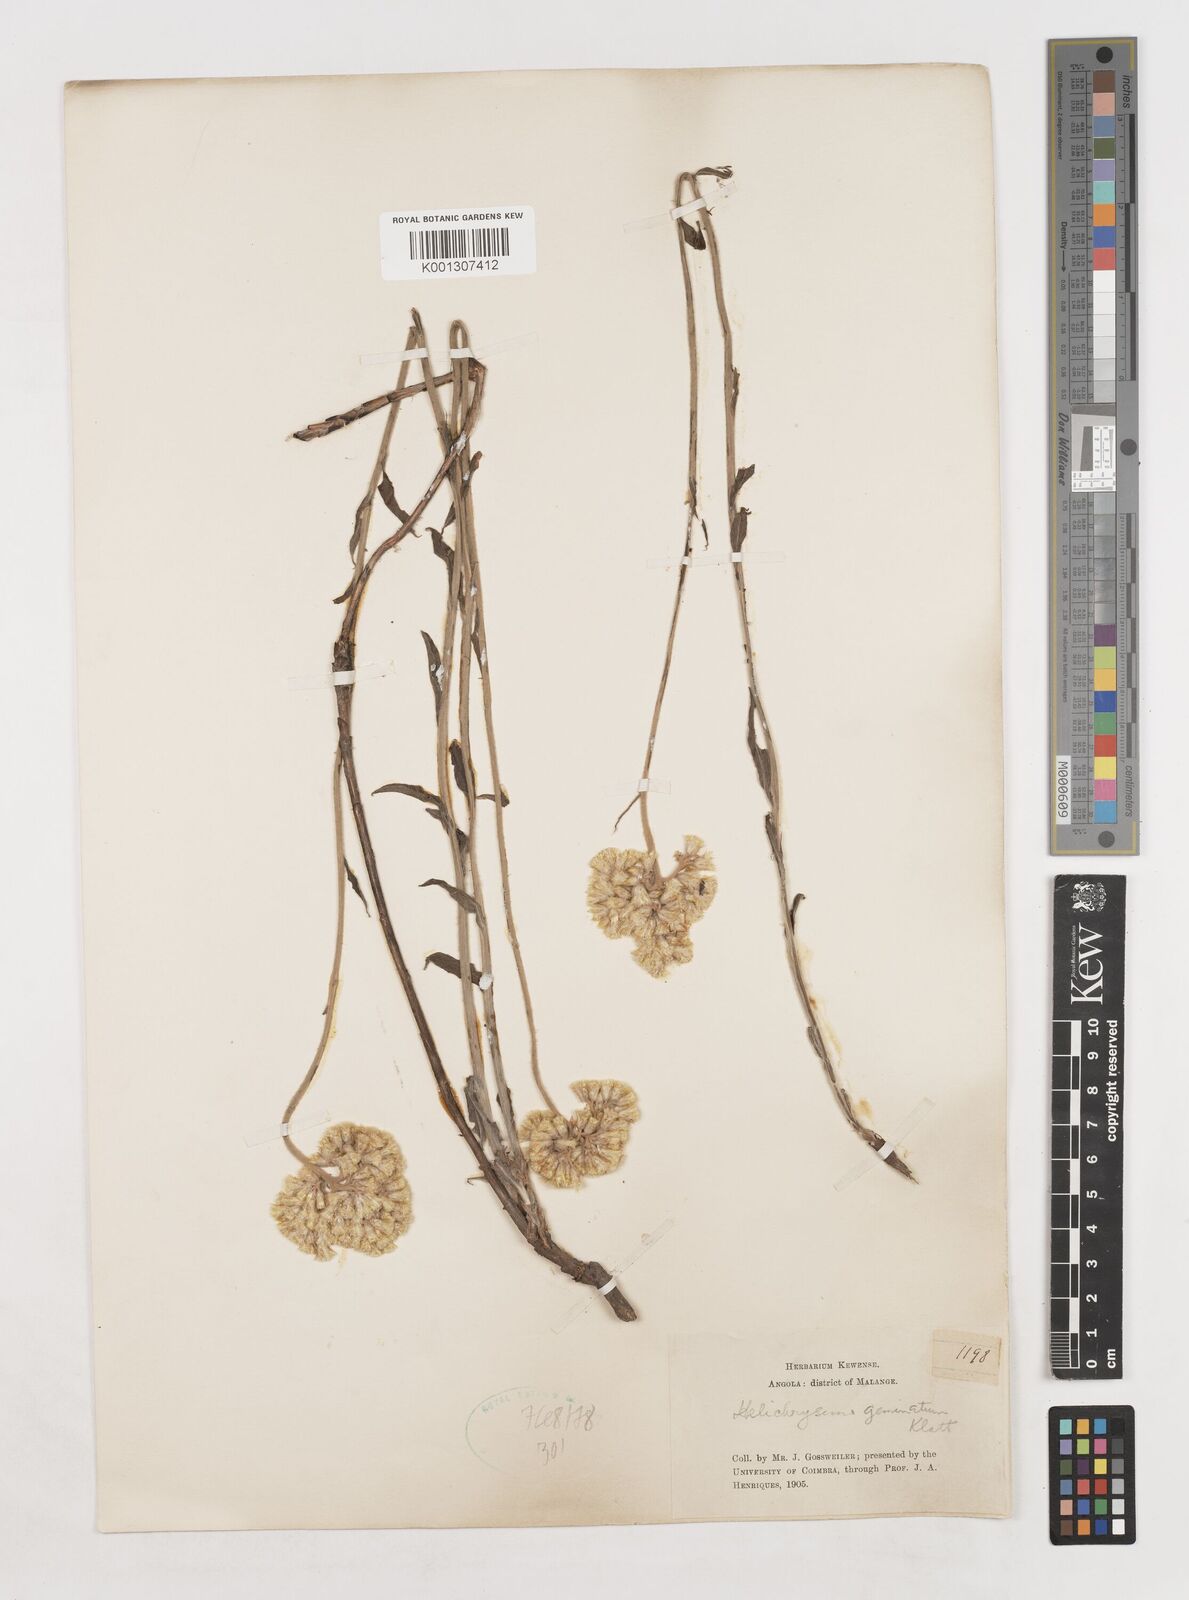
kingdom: Plantae
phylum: Tracheophyta
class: Magnoliopsida
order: Asterales
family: Asteraceae
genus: Helichrysum
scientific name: Helichrysum geminatum
